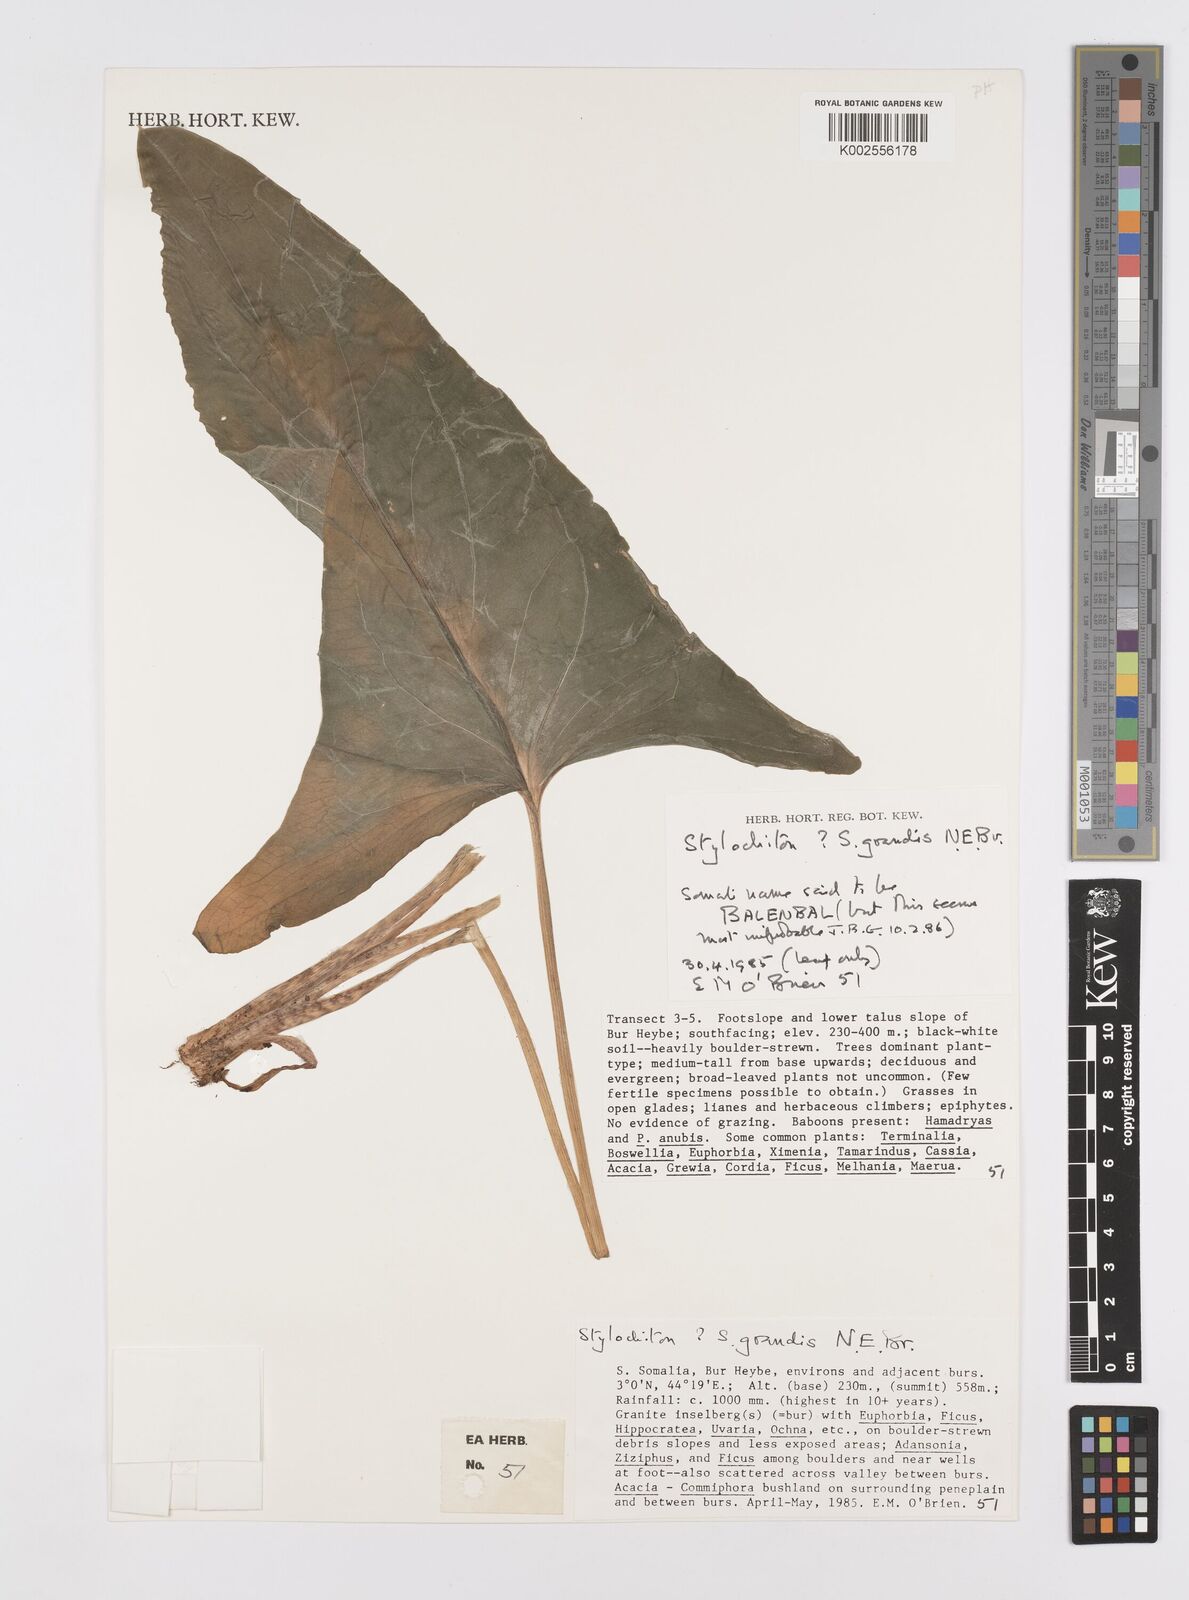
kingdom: Plantae
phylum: Tracheophyta
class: Liliopsida
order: Alismatales
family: Araceae
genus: Stylochaeton
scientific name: Stylochaeton
